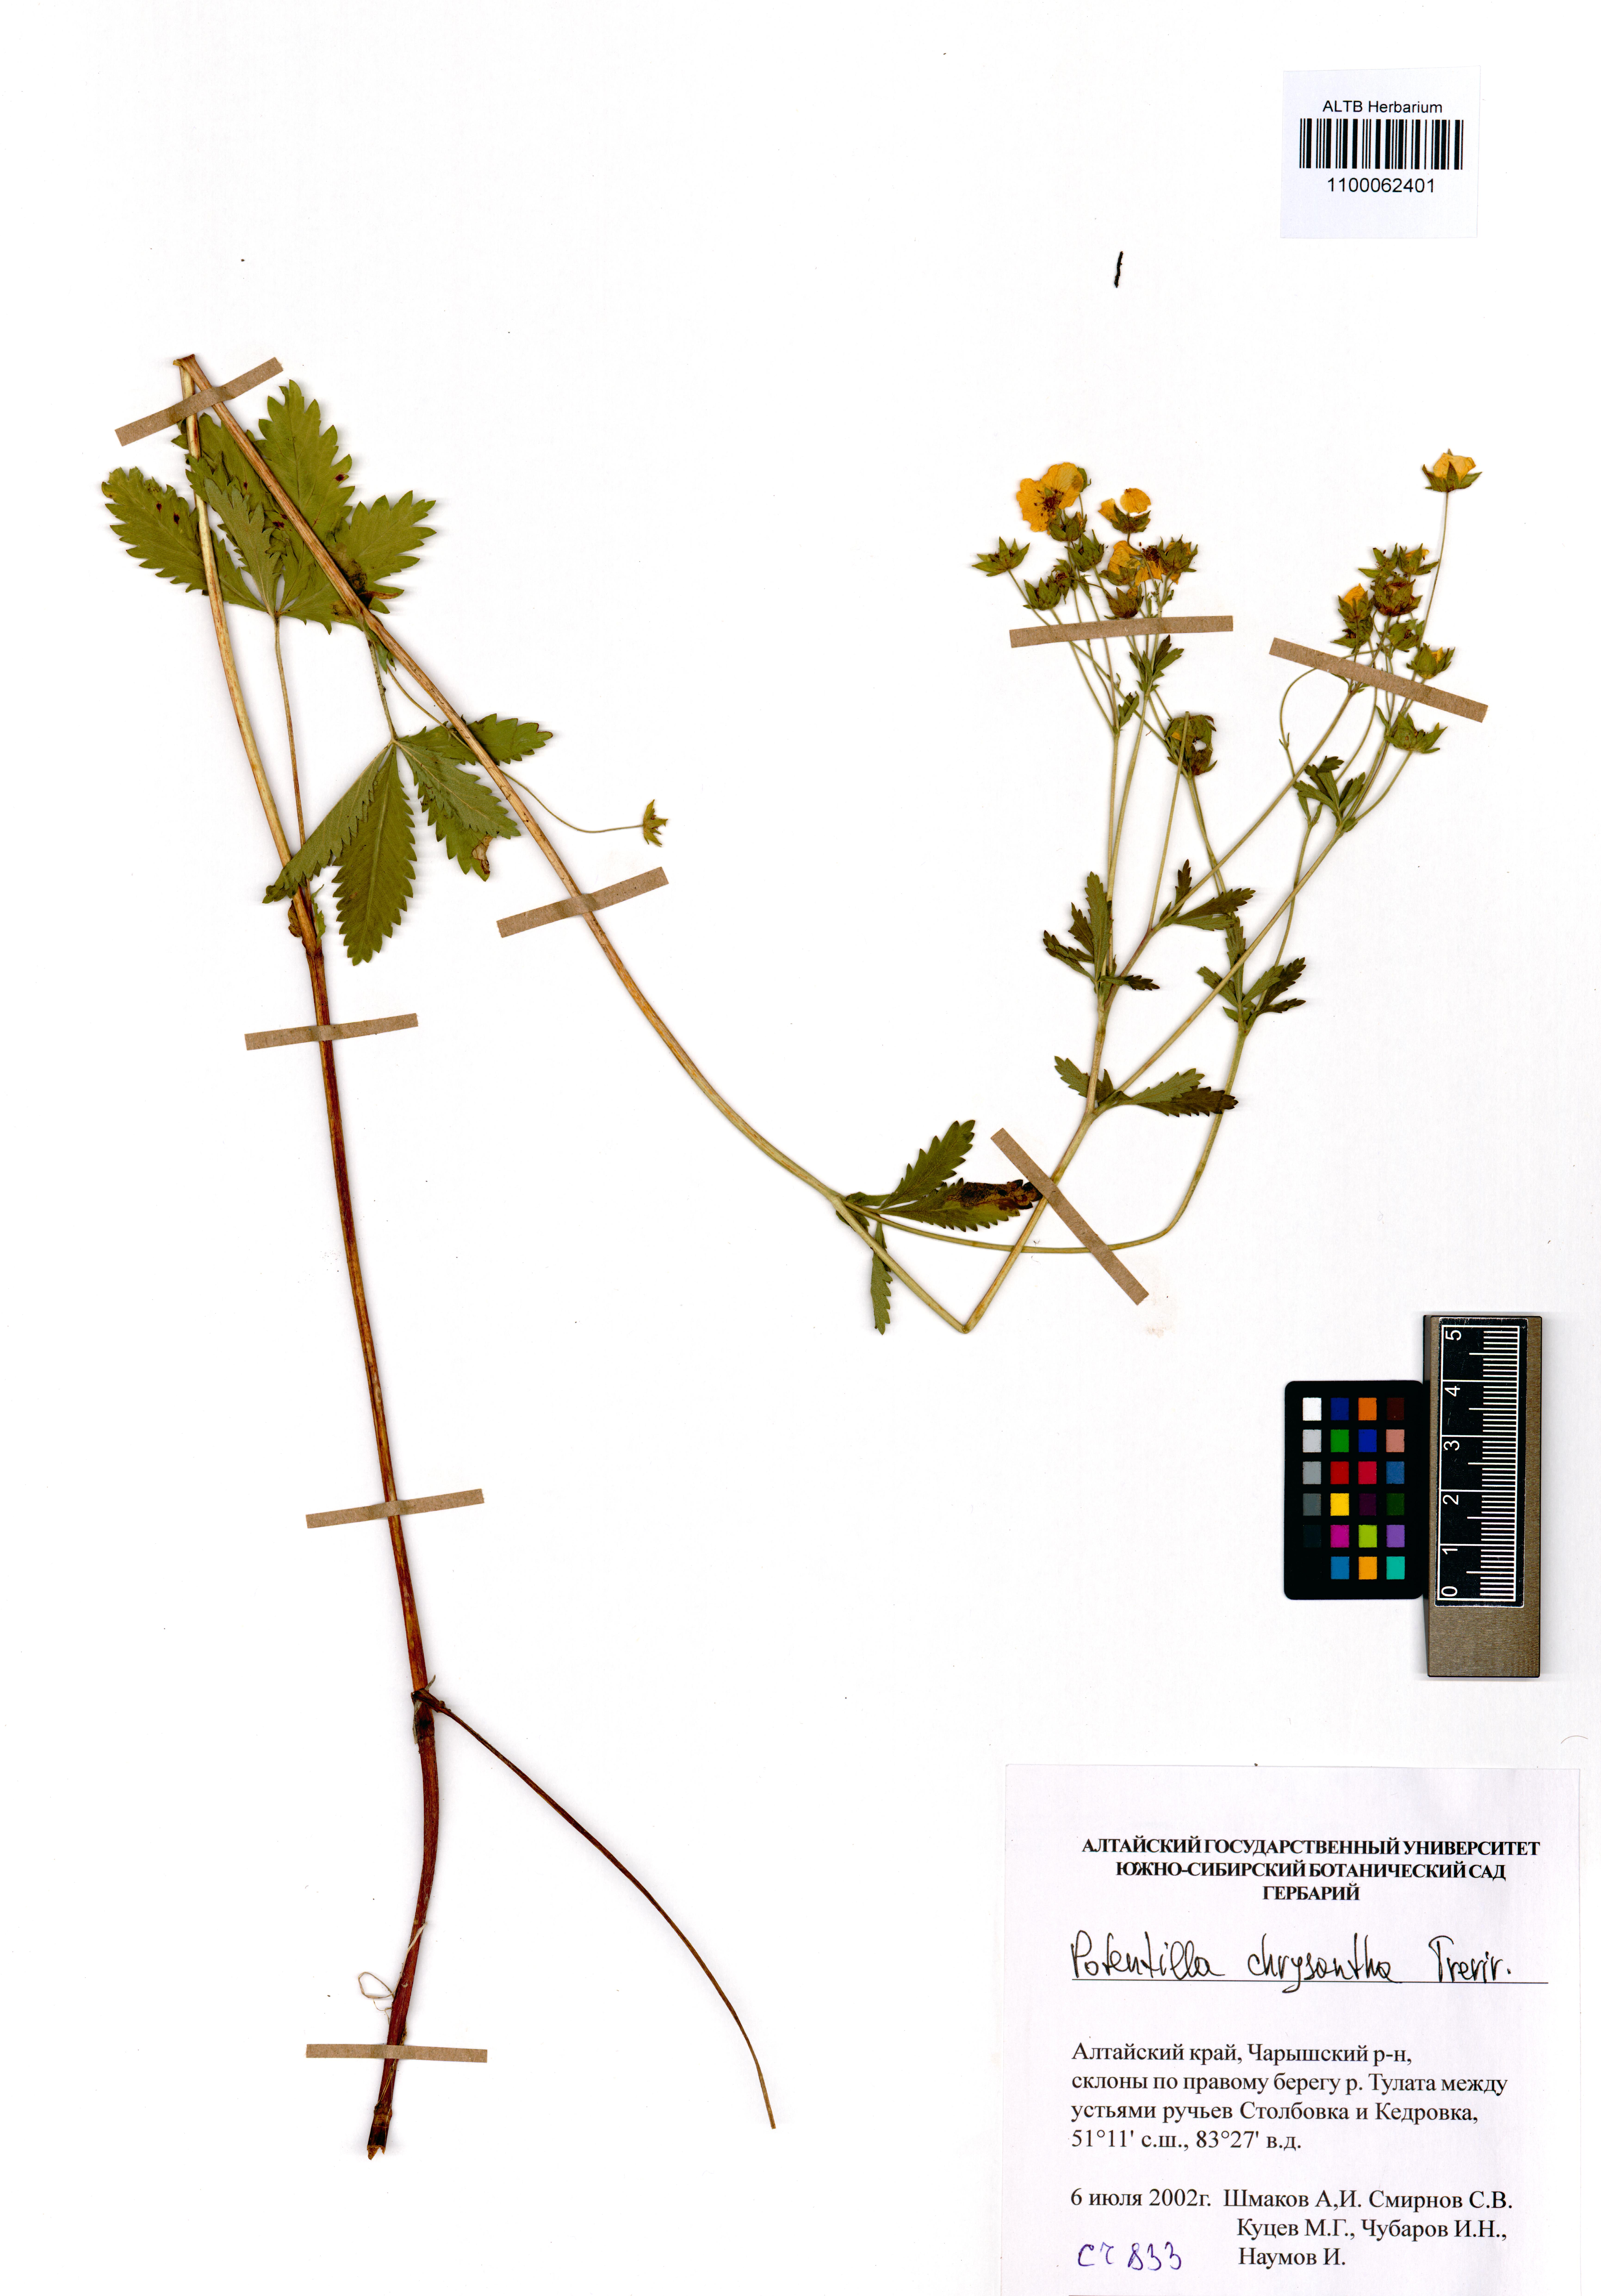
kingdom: Plantae
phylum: Tracheophyta
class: Magnoliopsida
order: Rosales
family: Rosaceae
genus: Potentilla
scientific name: Potentilla chrysantha
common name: Thuringian cinquefoil
